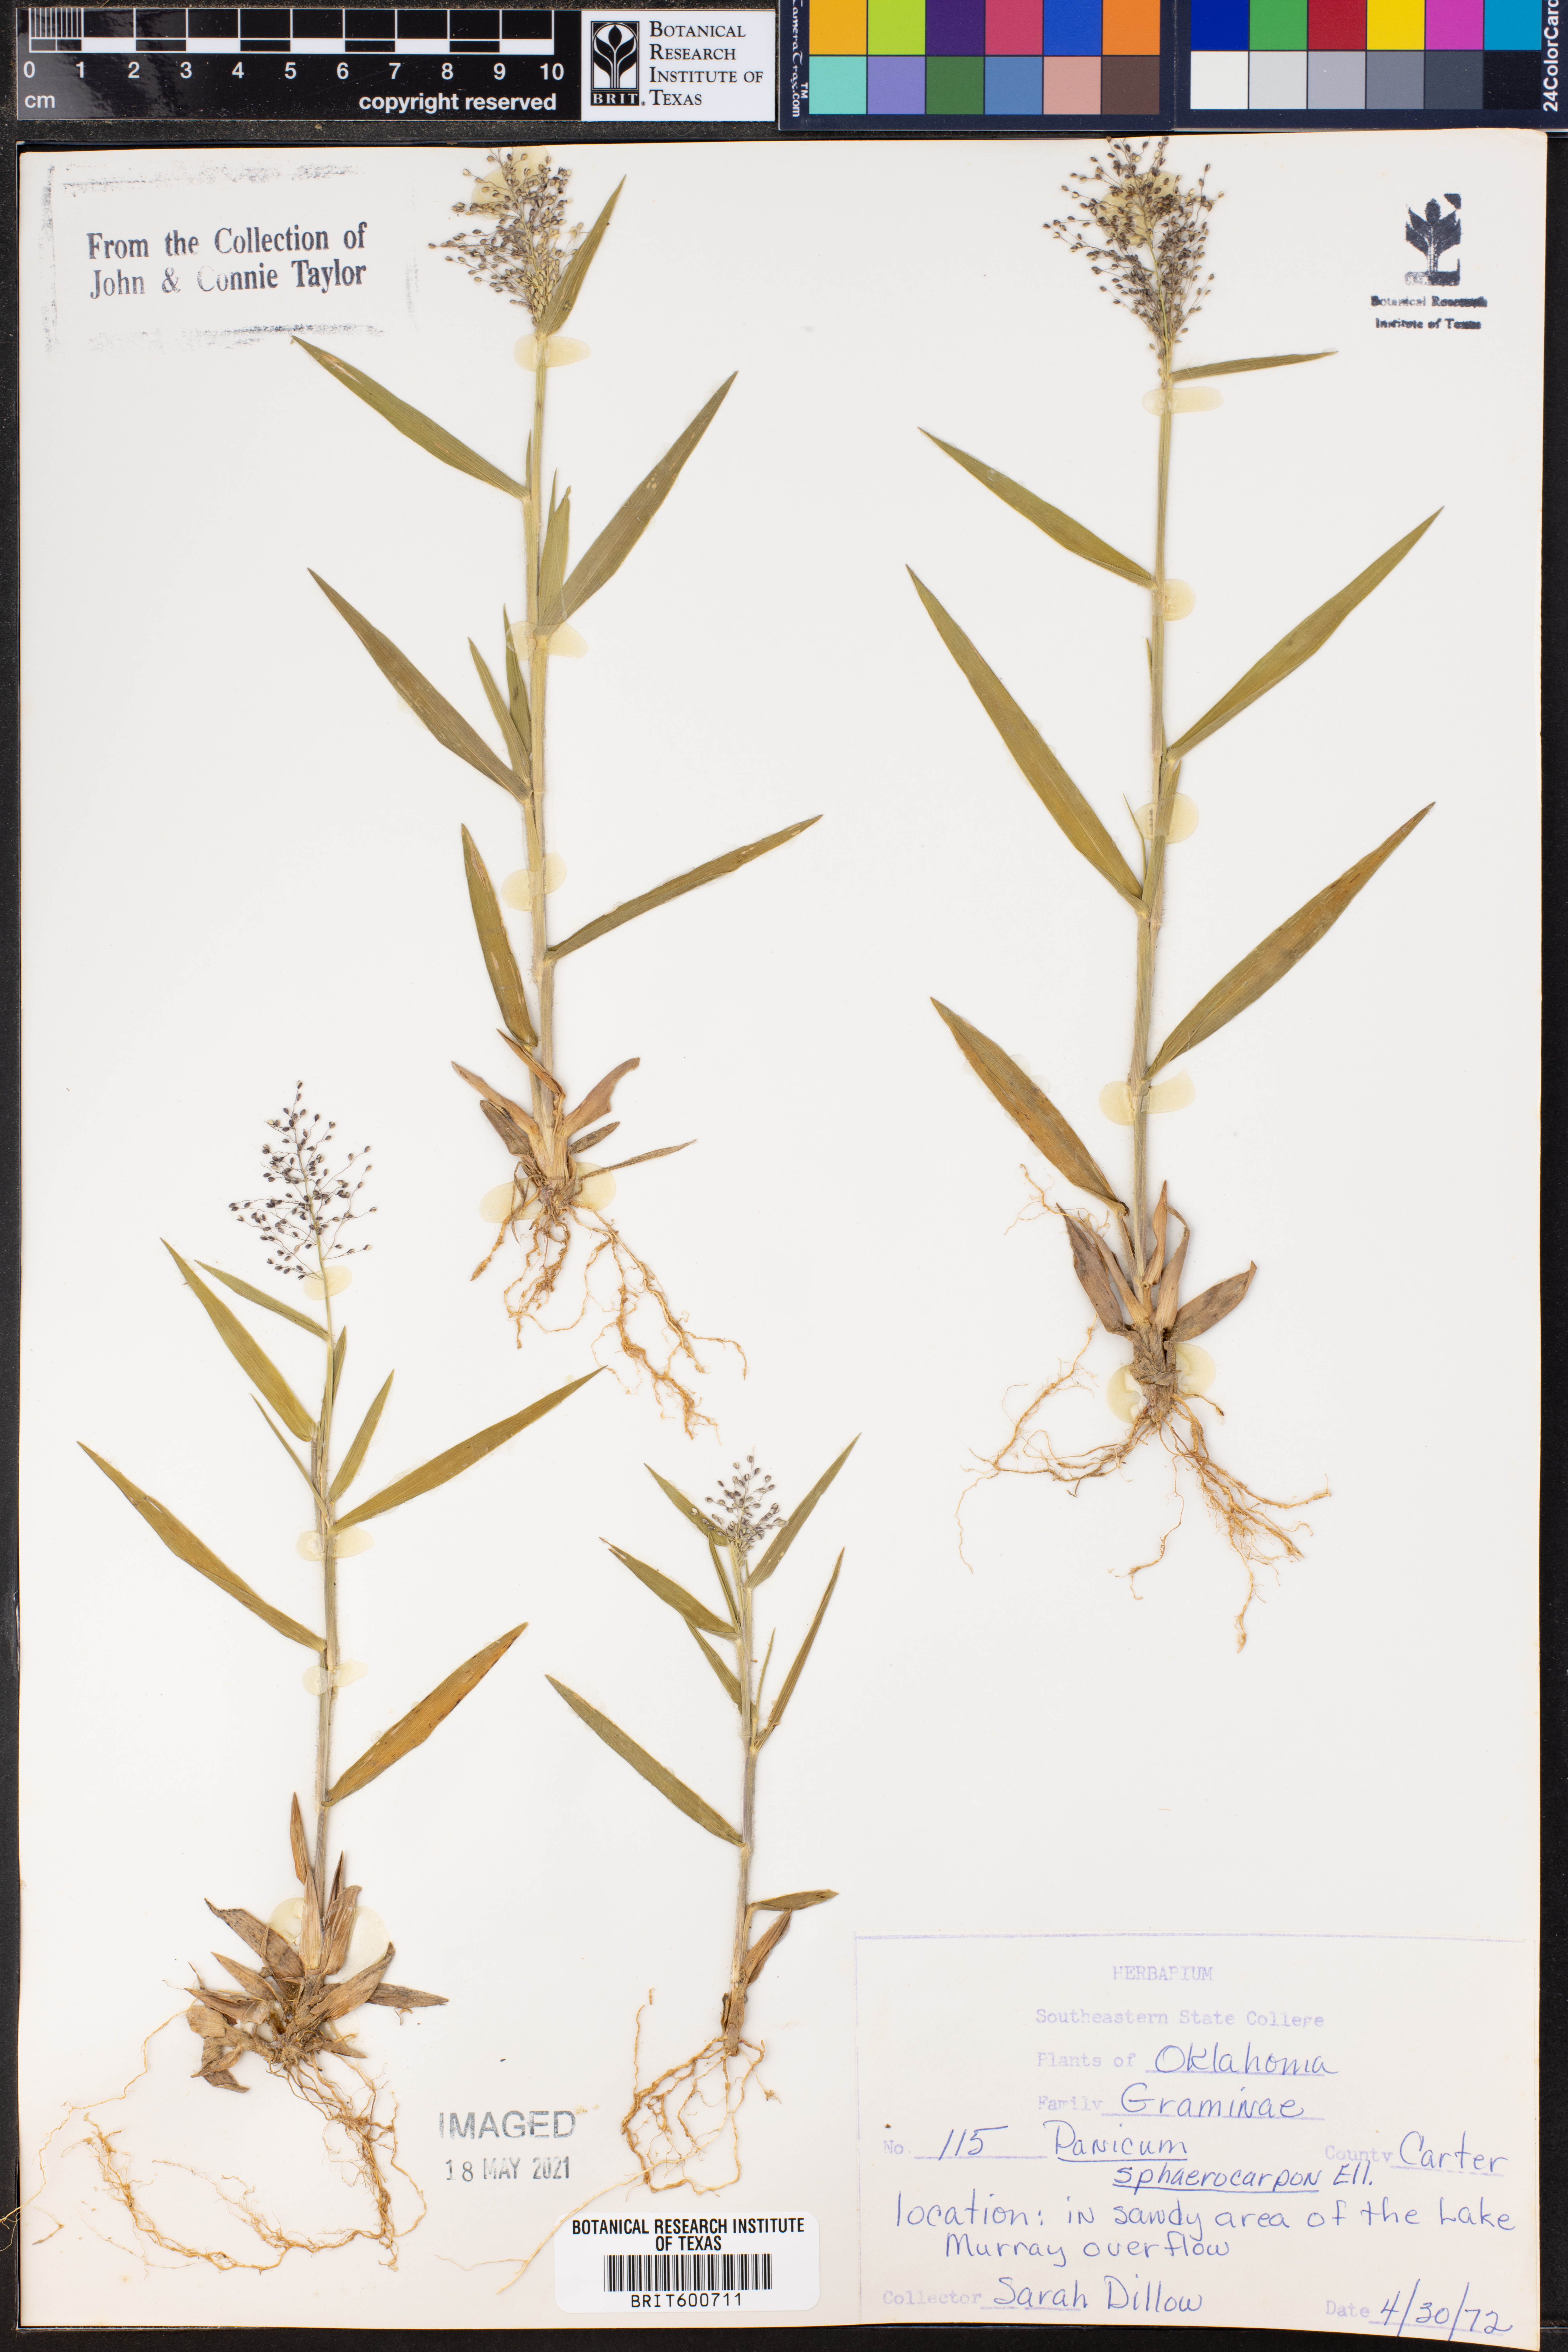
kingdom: Plantae
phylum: Tracheophyta
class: Liliopsida
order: Poales
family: Poaceae
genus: Dichanthelium
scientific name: Dichanthelium sphaerocarpon
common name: Round-fruited panicgrass
